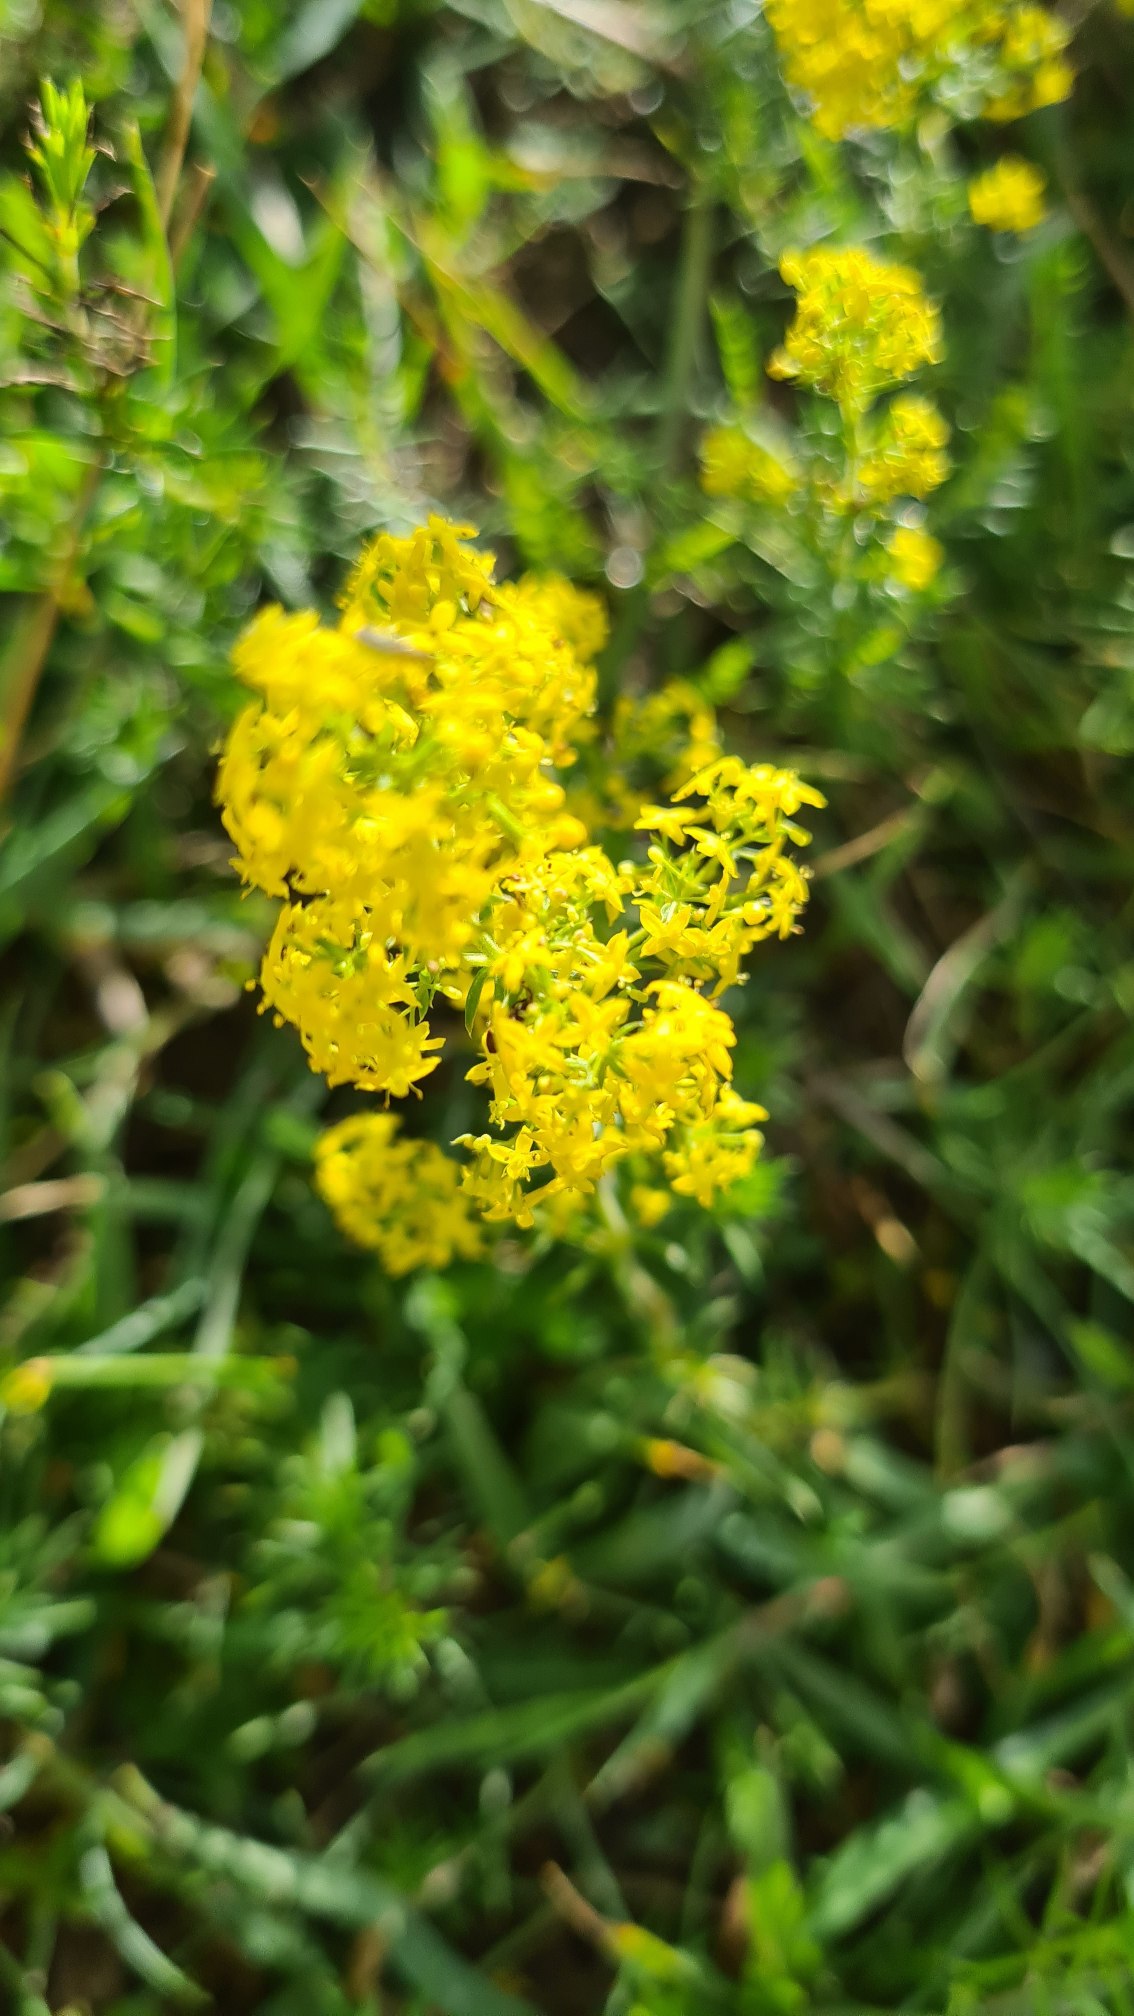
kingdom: Plantae
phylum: Tracheophyta
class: Magnoliopsida
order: Gentianales
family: Rubiaceae
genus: Galium
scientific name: Galium verum
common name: Gul snerre
